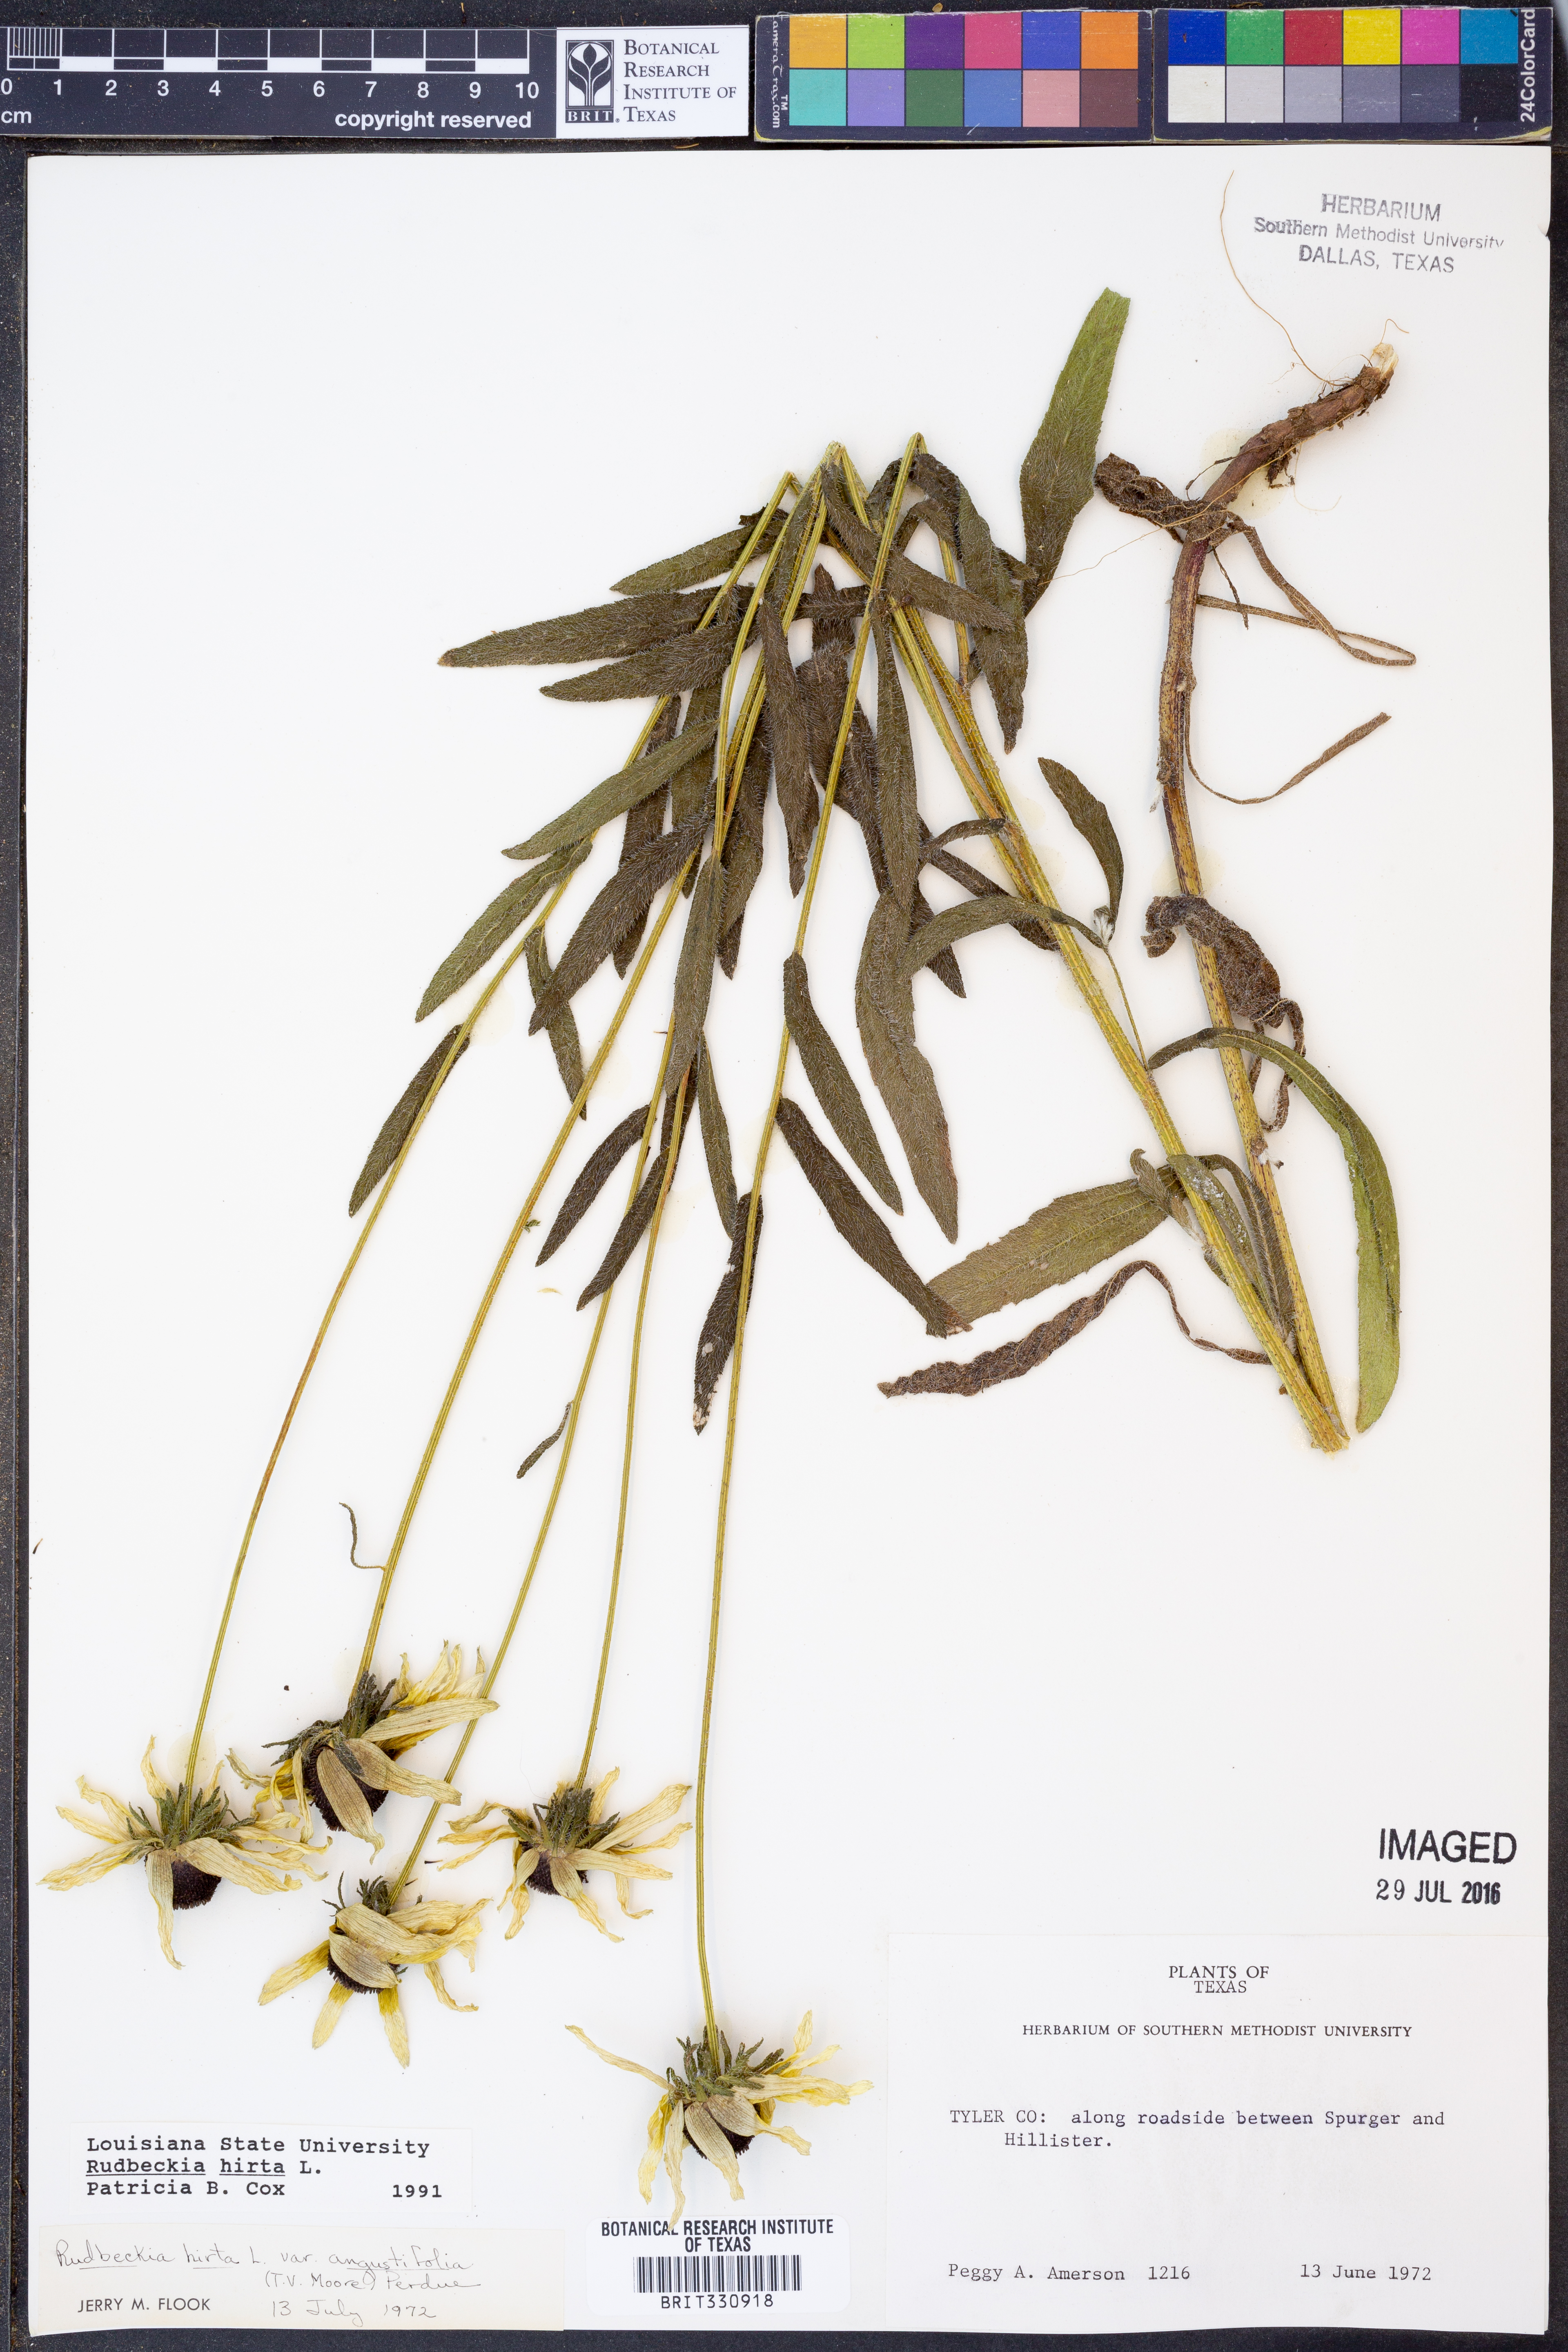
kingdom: Plantae
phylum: Tracheophyta
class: Magnoliopsida
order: Asterales
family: Asteraceae
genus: Rudbeckia
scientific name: Rudbeckia hirta
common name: Black-eyed-susan
